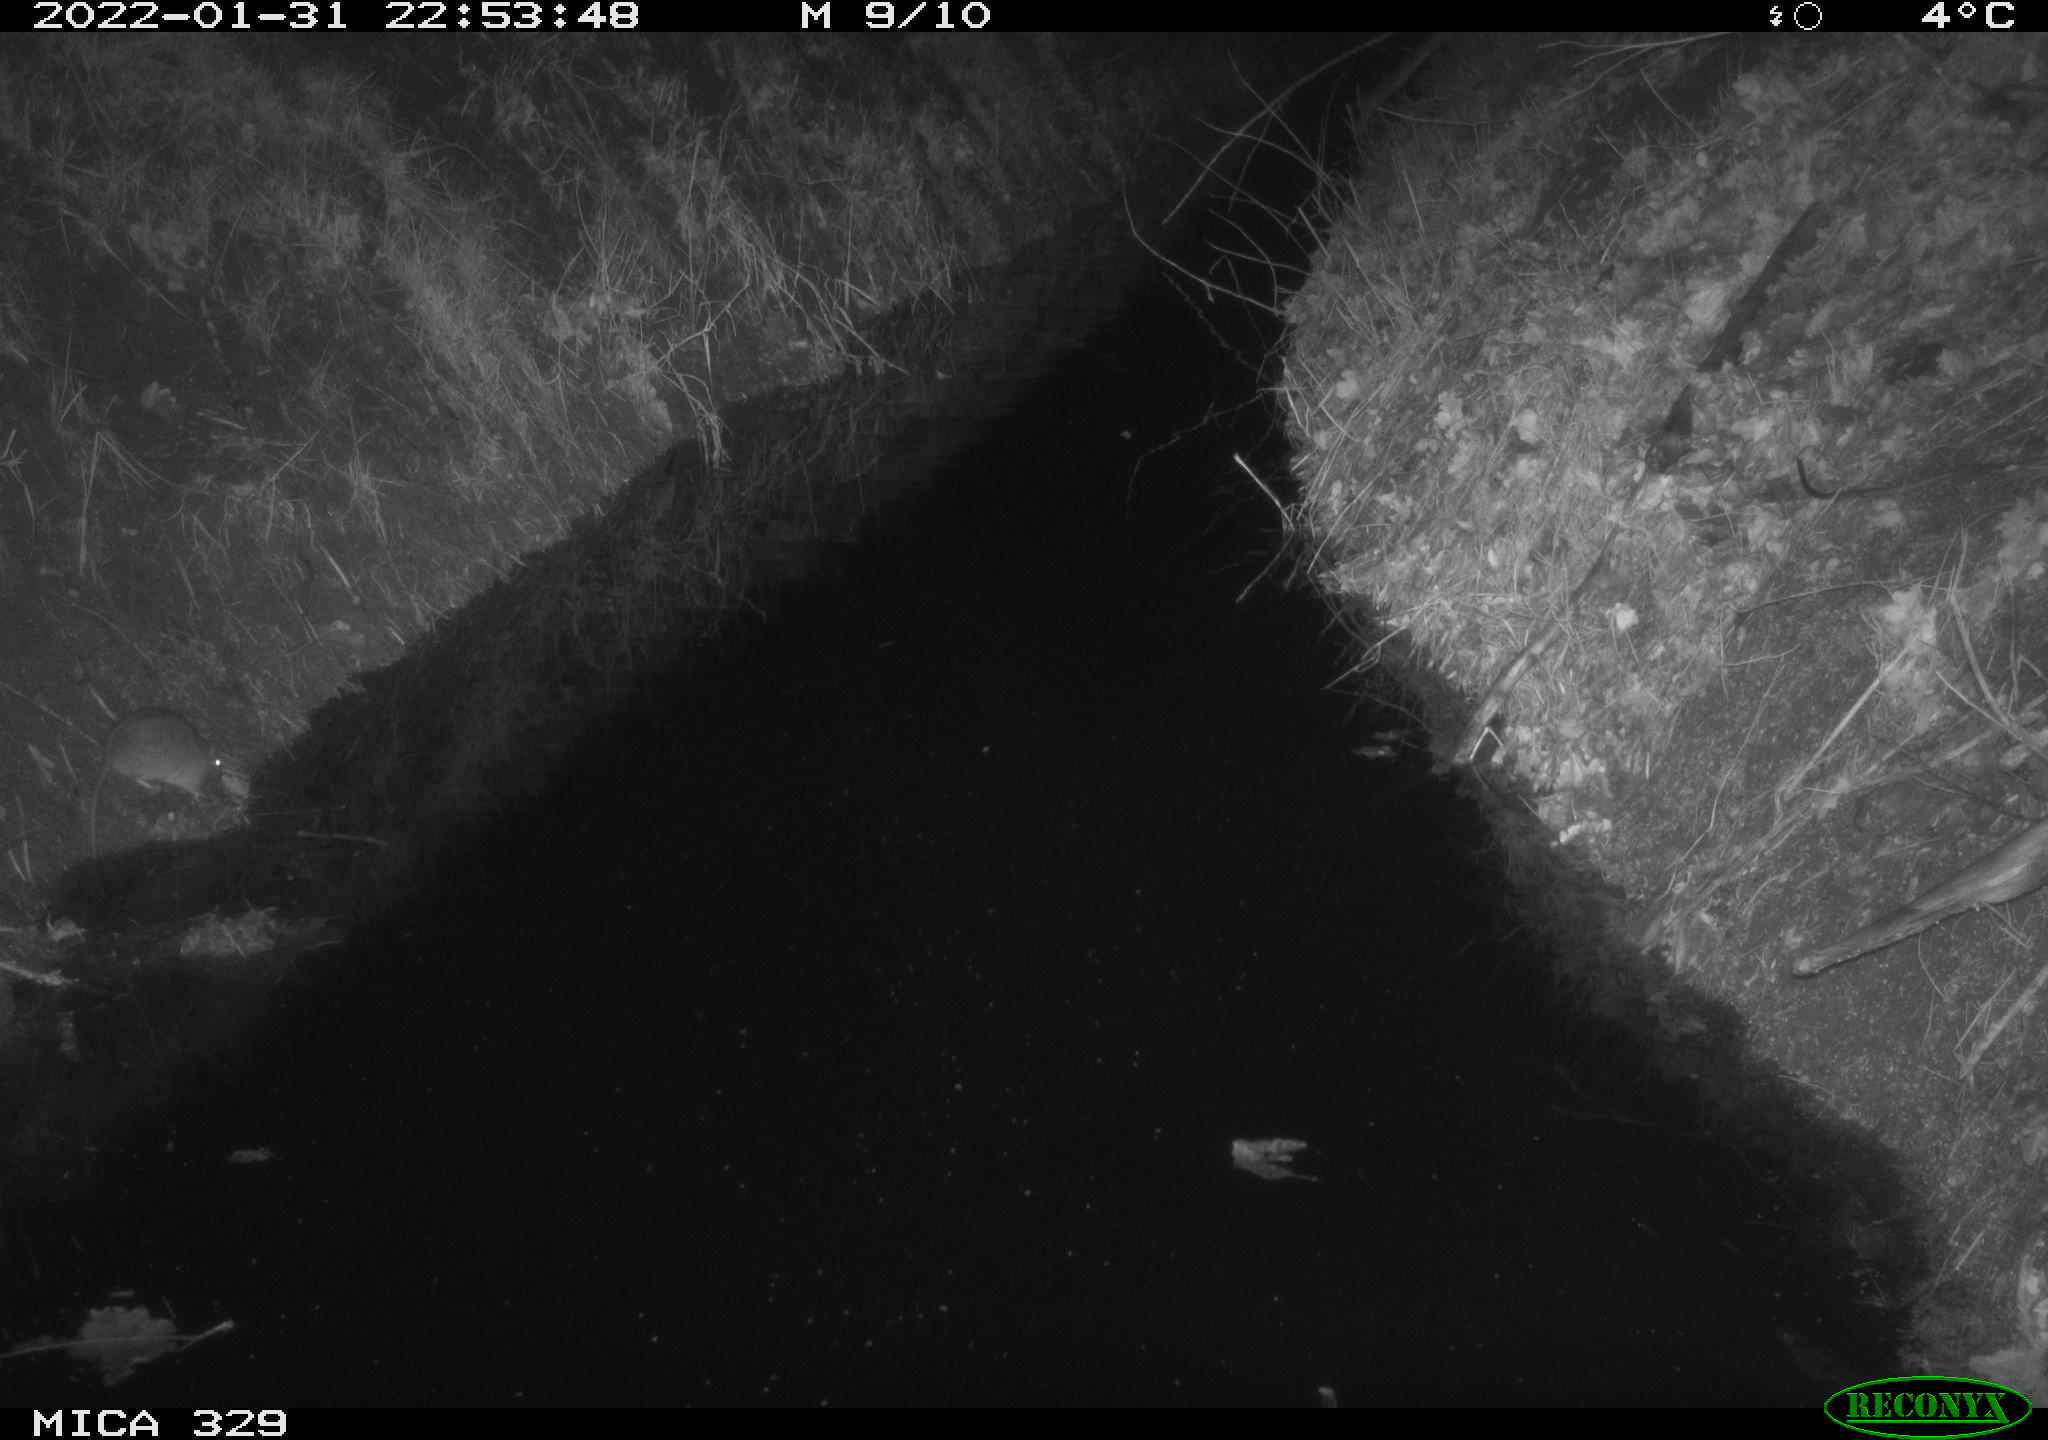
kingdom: Animalia
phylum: Chordata
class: Mammalia
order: Rodentia
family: Muridae
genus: Rattus
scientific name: Rattus norvegicus
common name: Brown rat
